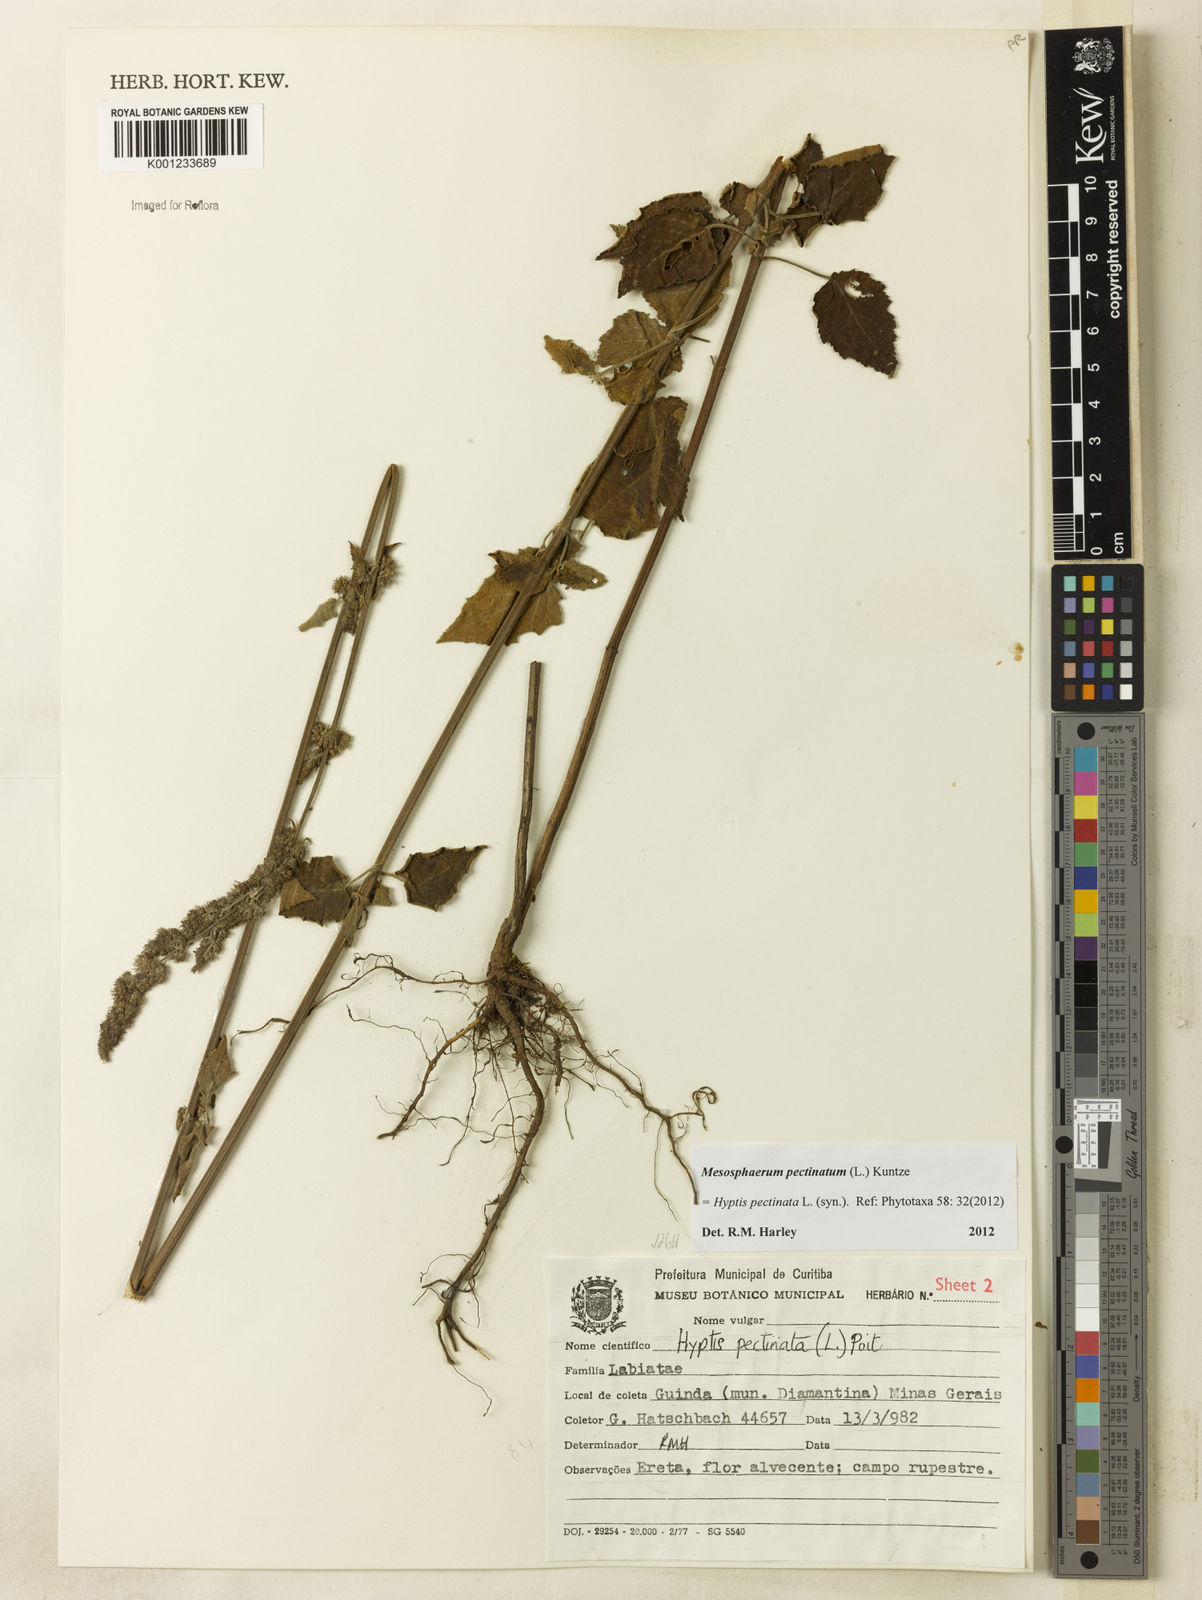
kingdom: Plantae
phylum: Tracheophyta
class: Magnoliopsida
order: Lamiales
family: Lamiaceae
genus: Mesosphaerum
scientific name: Mesosphaerum pectinatum
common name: Comb hyptis
